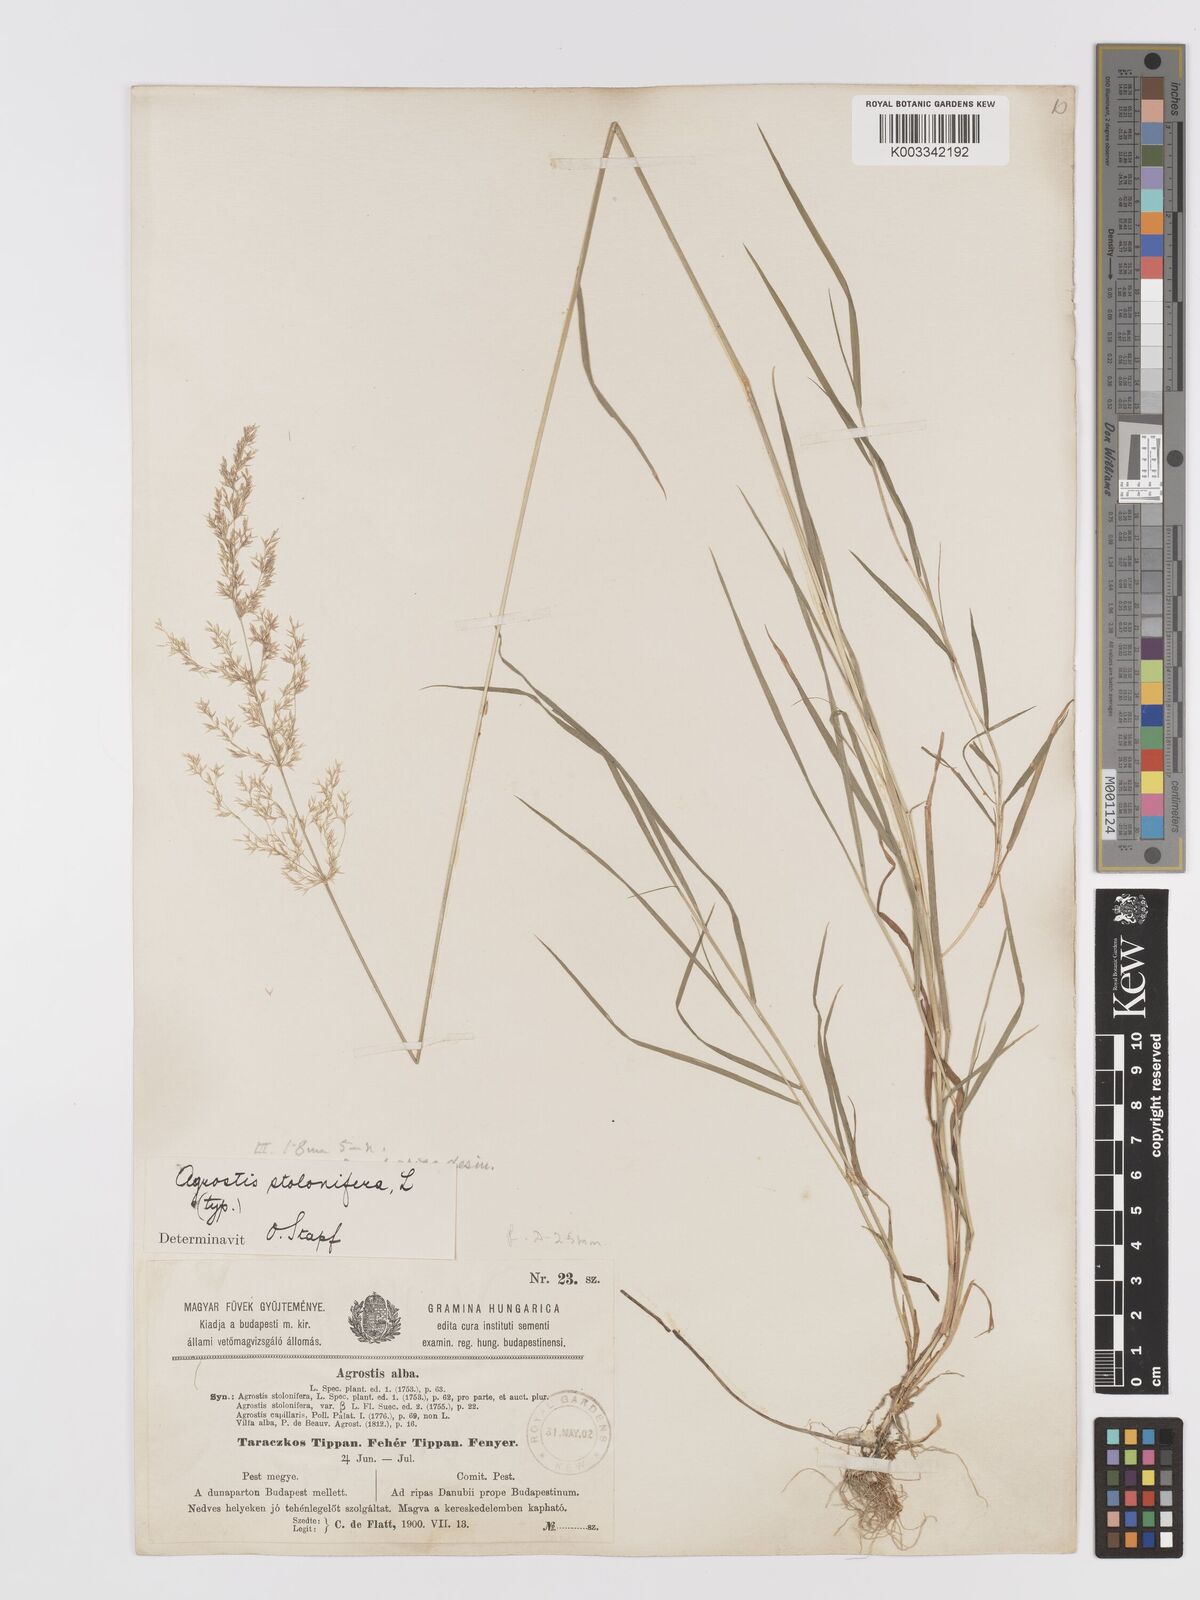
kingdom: Plantae
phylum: Tracheophyta
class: Liliopsida
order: Poales
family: Poaceae
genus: Agrostis
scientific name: Agrostis stolonifera
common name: Creeping bentgrass
